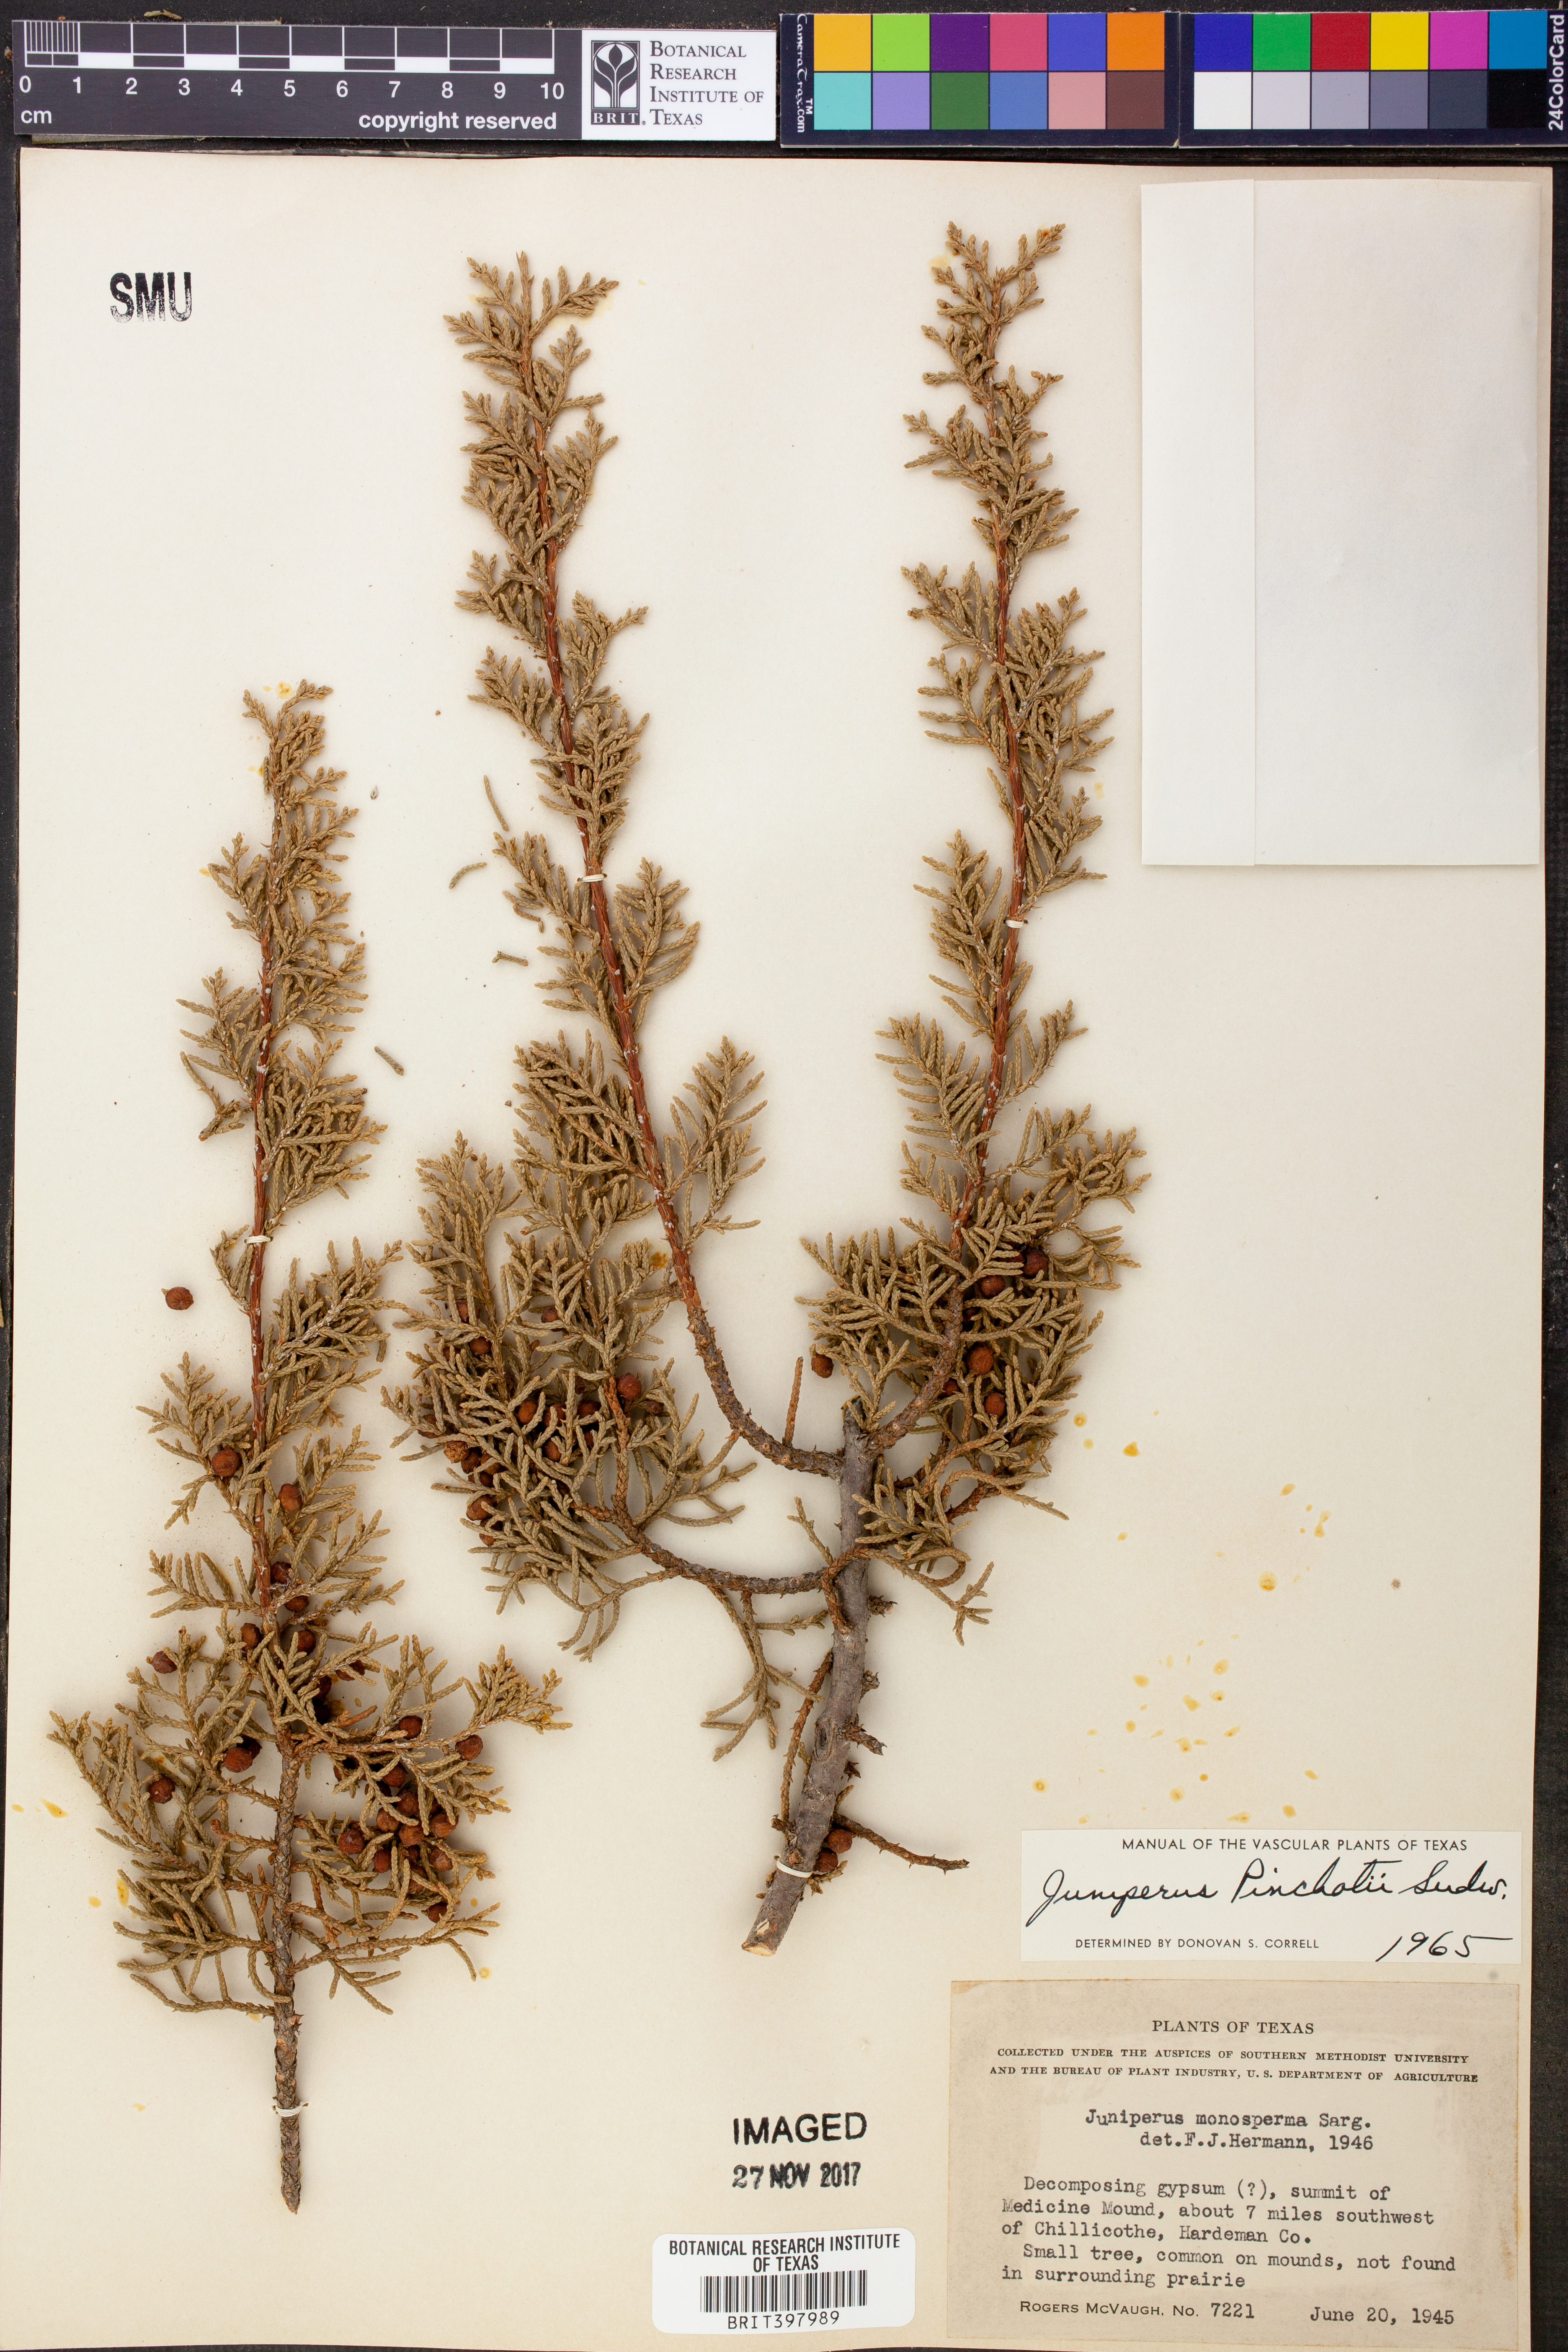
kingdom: Plantae
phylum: Tracheophyta
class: Pinopsida
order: Pinales
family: Cupressaceae
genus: Juniperus
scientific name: Juniperus pinchotii
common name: Pinchot juniper
